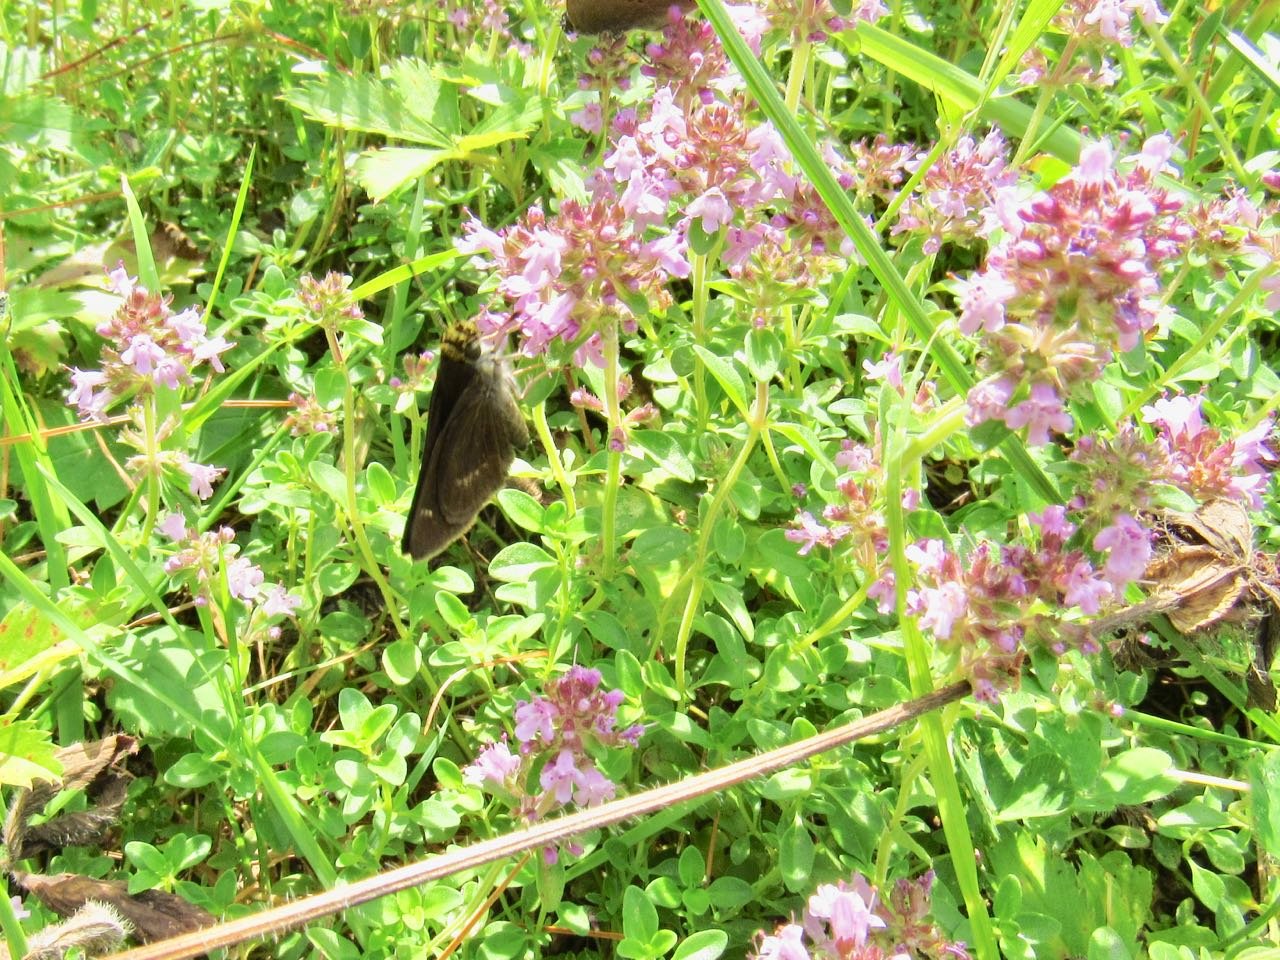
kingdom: Animalia
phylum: Arthropoda
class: Insecta
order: Lepidoptera
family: Hesperiidae
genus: Euphyes
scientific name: Euphyes vestris
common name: Dun Skipper
